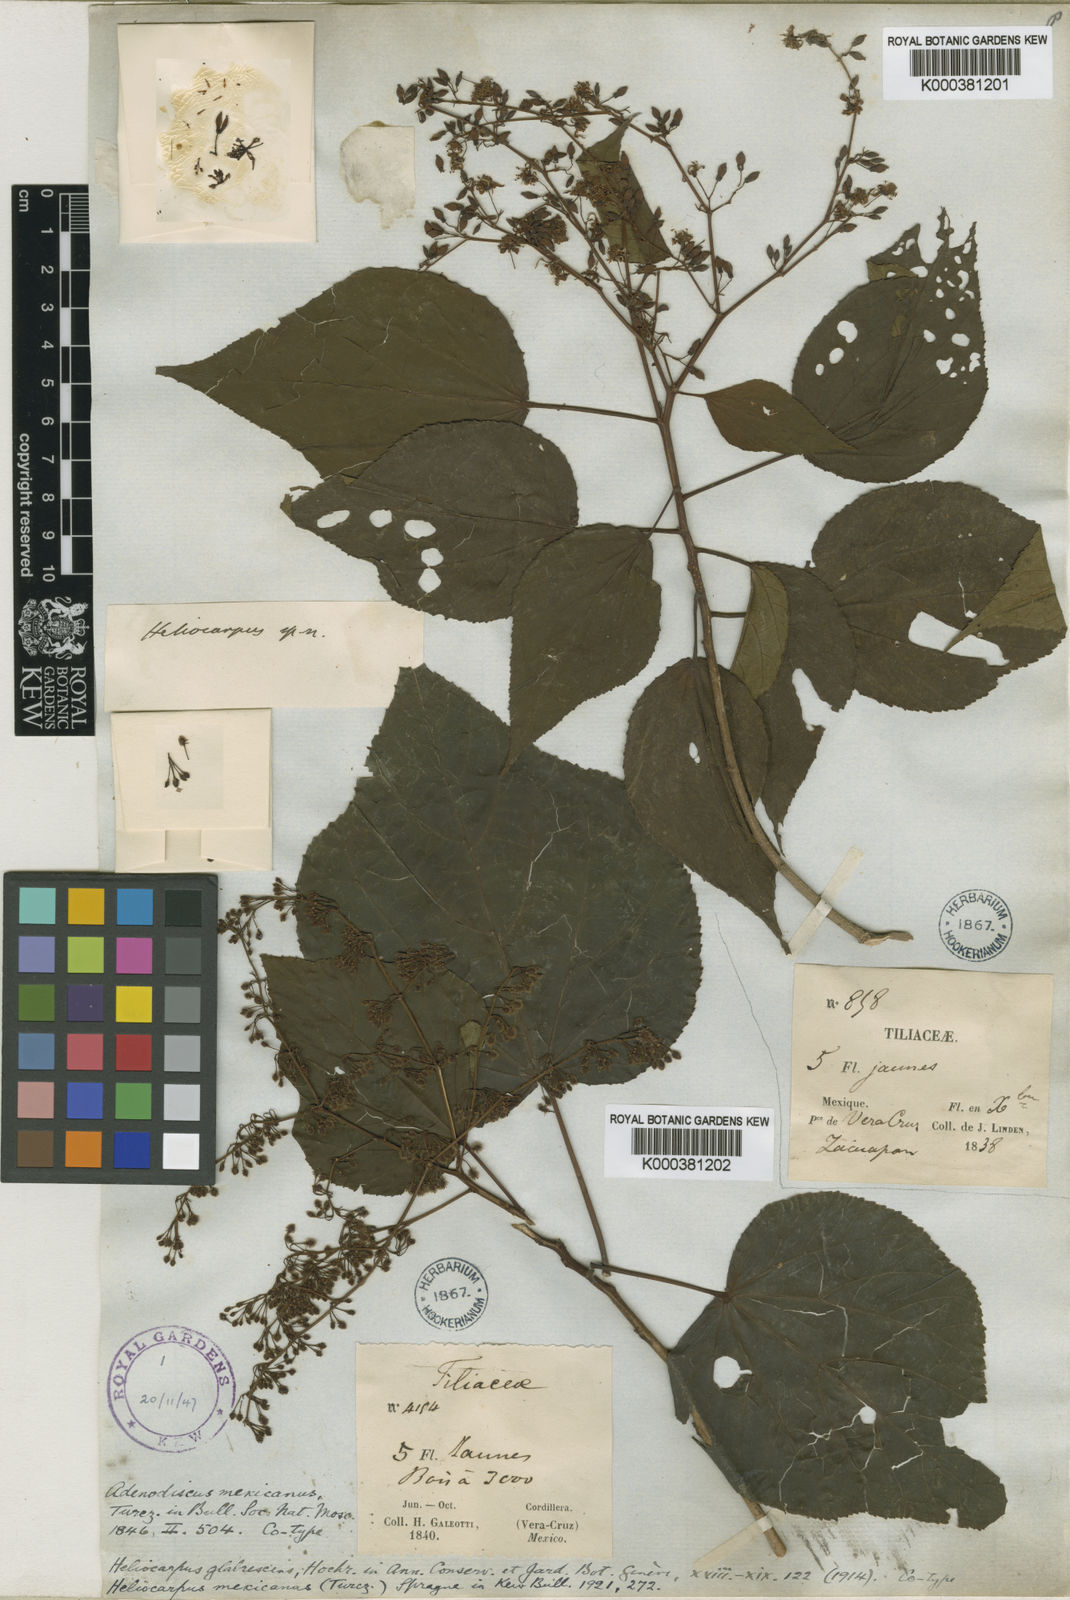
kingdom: Plantae
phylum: Tracheophyta
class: Magnoliopsida
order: Malvales
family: Malvaceae
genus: Heliocarpus
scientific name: Heliocarpus mexicanus
